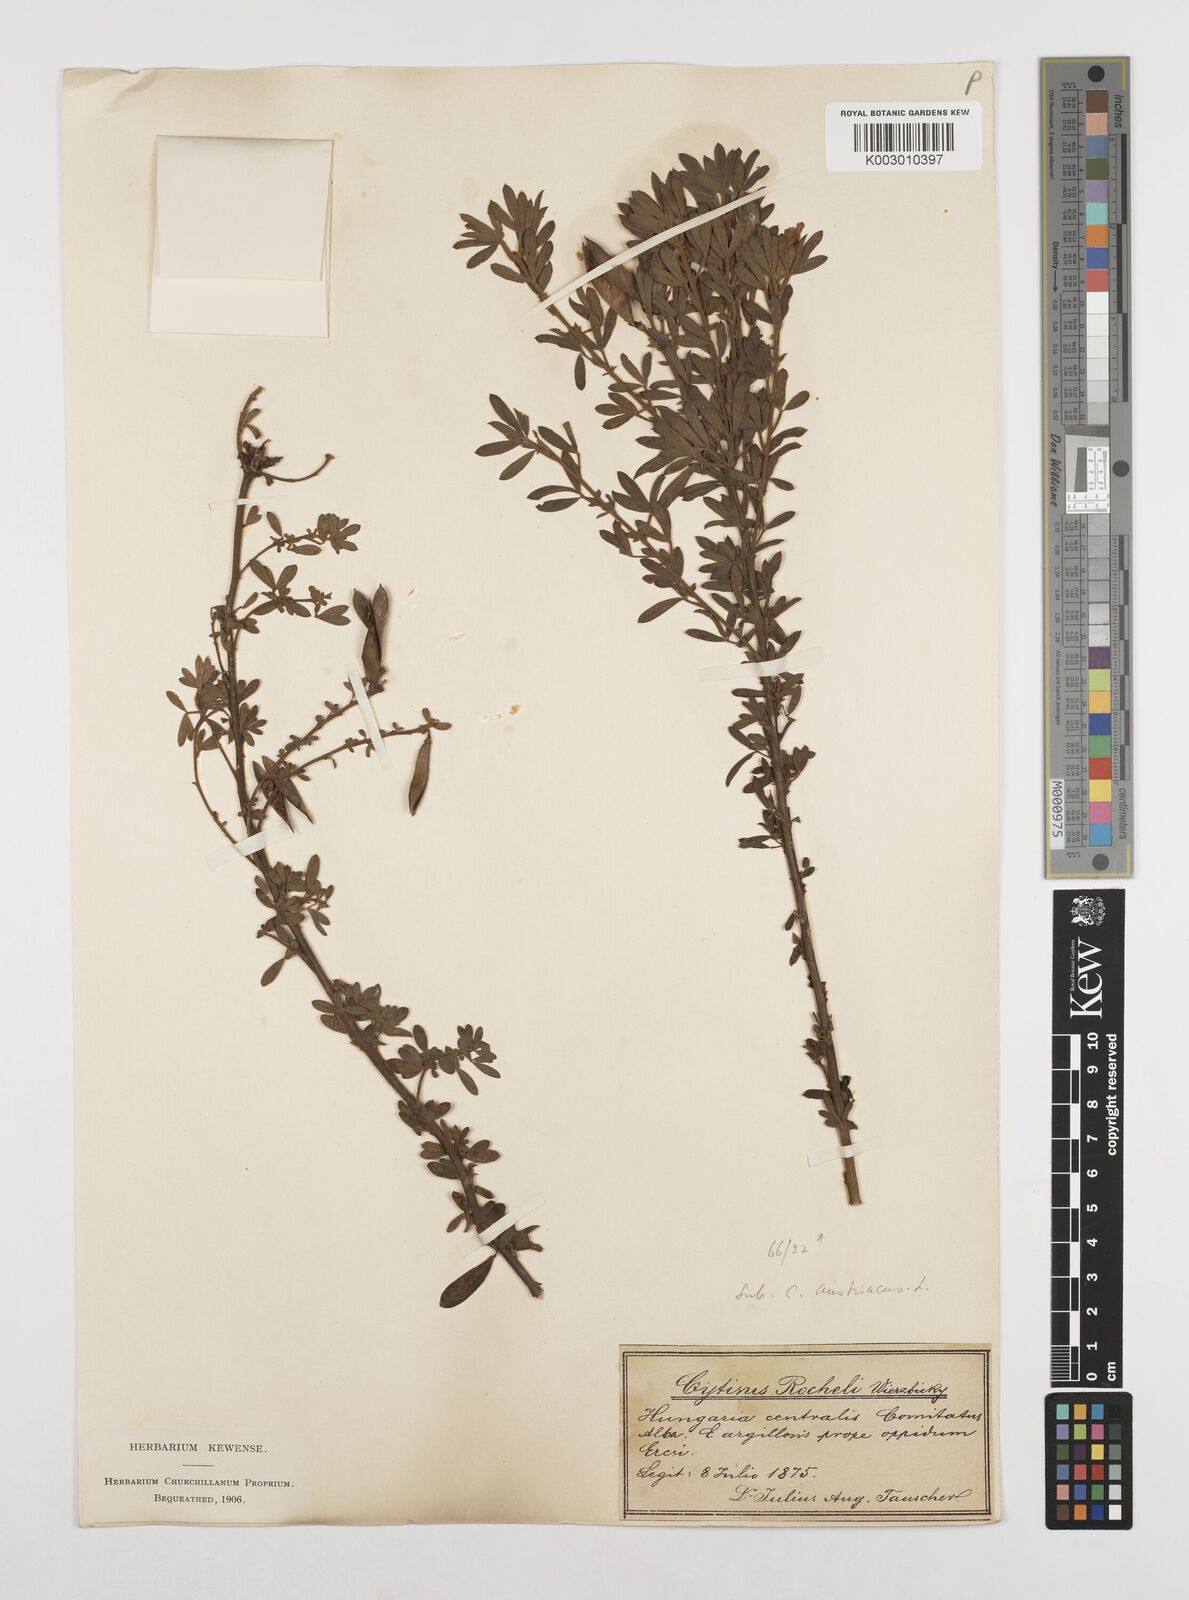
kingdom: Plantae
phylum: Tracheophyta
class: Magnoliopsida
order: Fabales
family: Fabaceae
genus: Chamaecytisus
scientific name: Chamaecytisus rochelii
